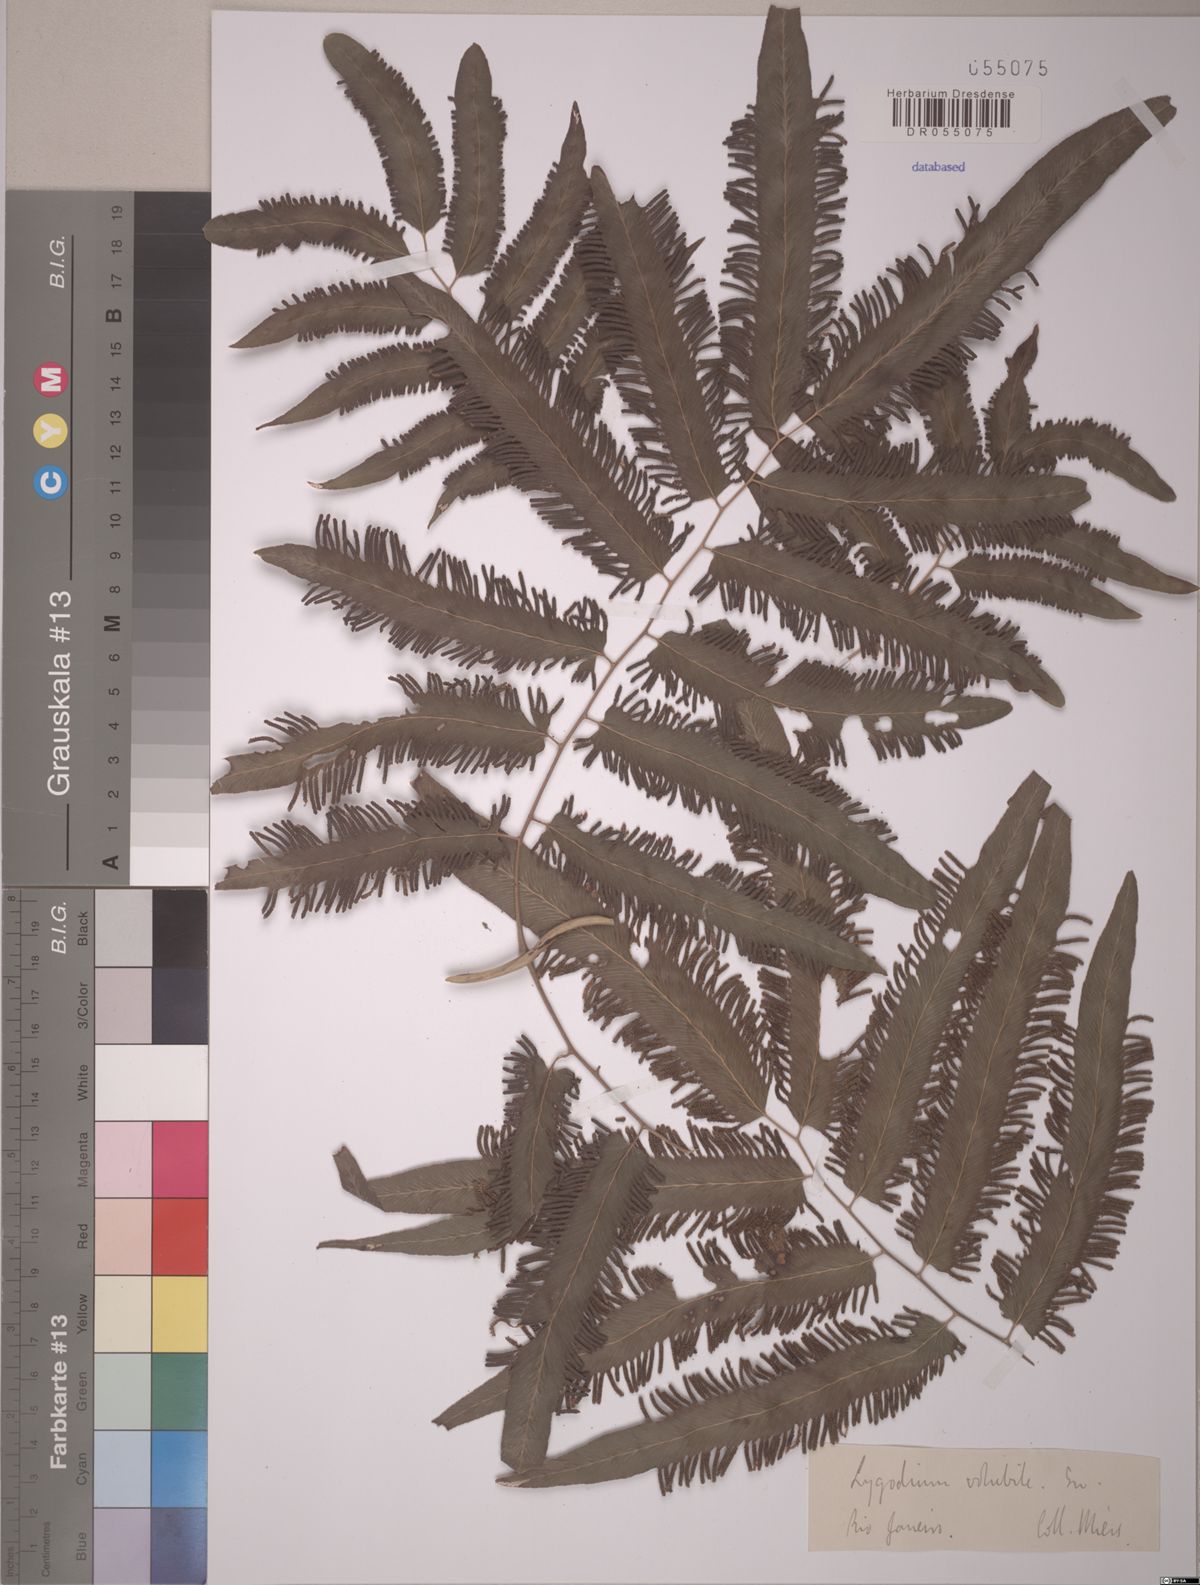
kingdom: Plantae
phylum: Tracheophyta
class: Polypodiopsida
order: Schizaeales
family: Lygodiaceae
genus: Lygodium
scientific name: Lygodium volubile
